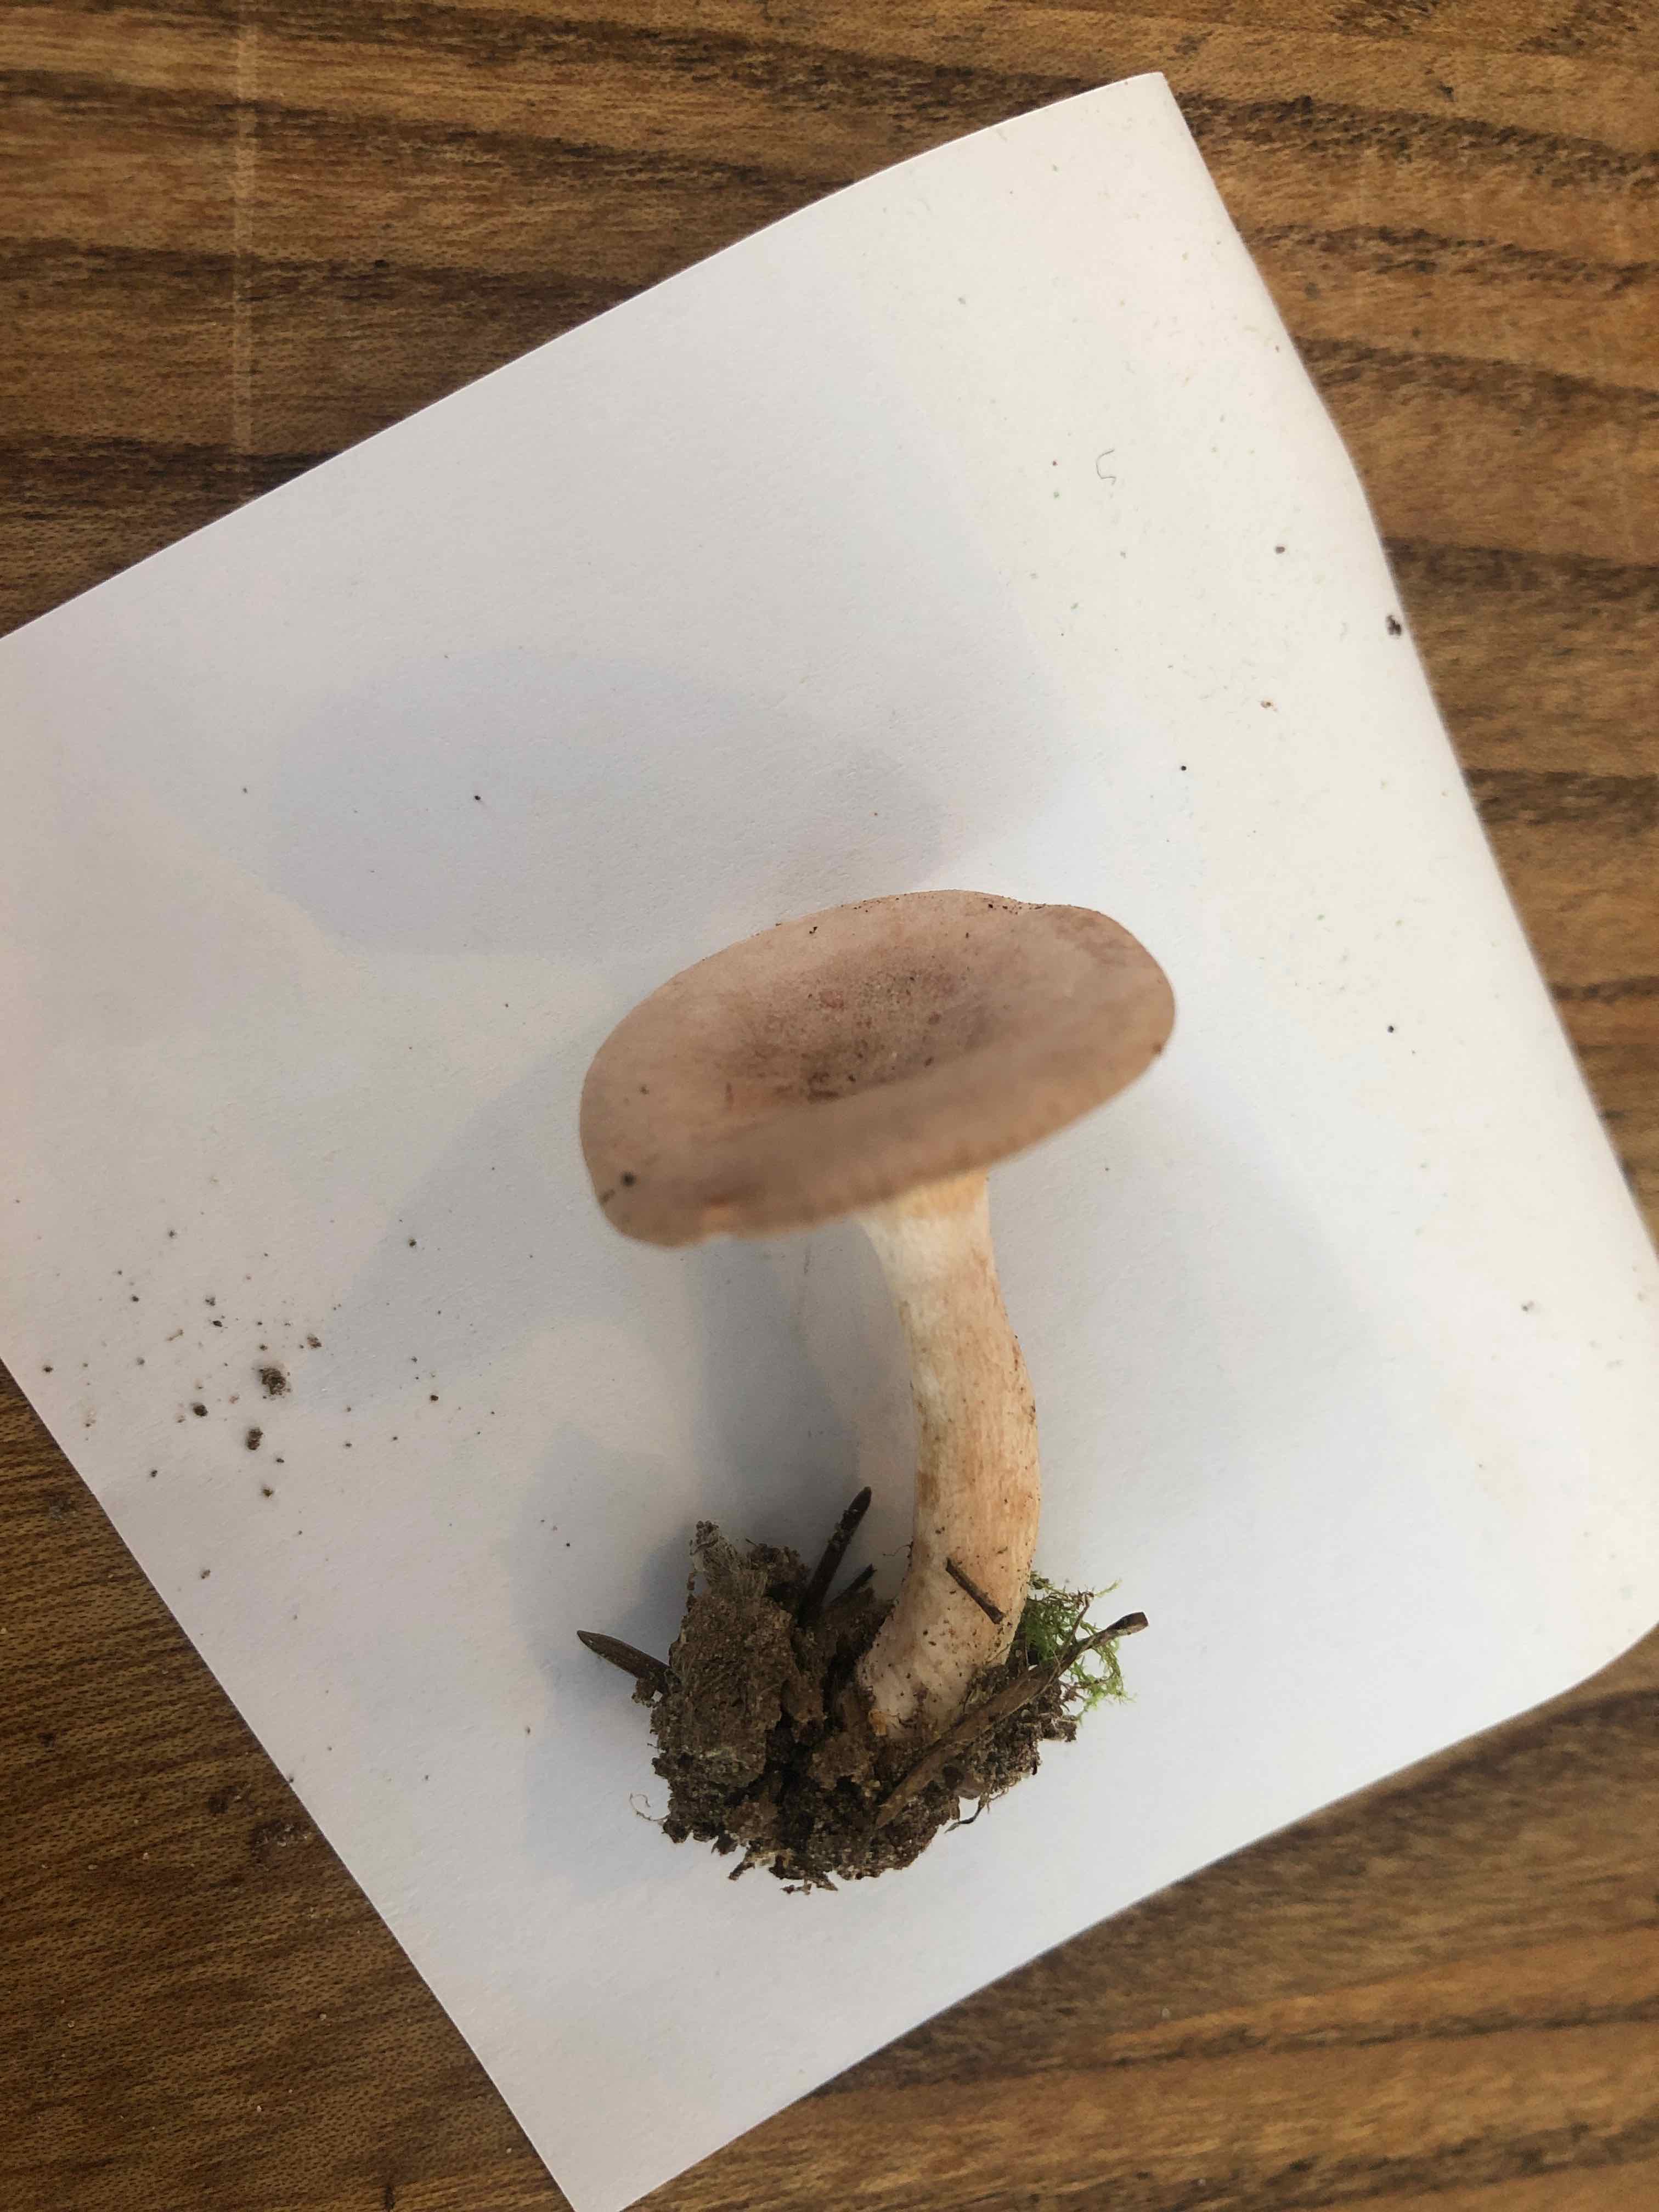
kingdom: Fungi
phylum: Basidiomycota
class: Agaricomycetes
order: Russulales
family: Russulaceae
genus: Lactarius
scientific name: Lactarius glyciosmus
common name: kokos-mælkehat
